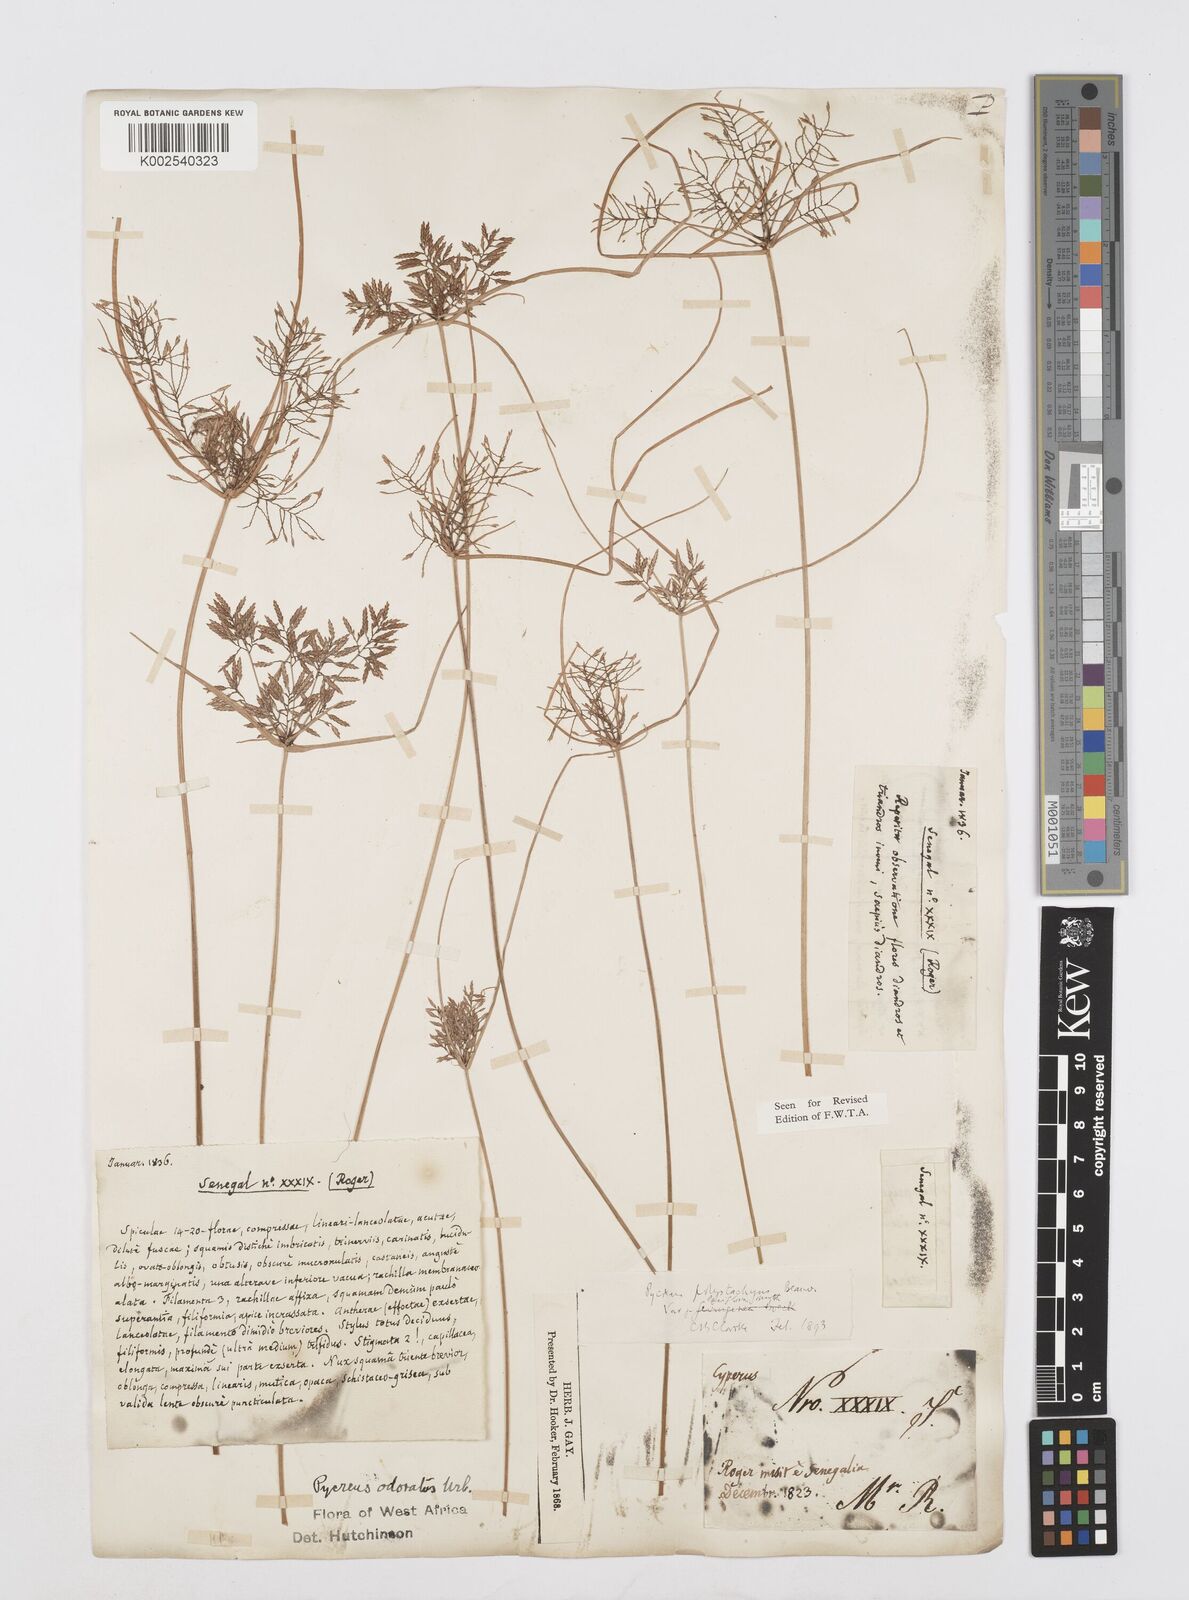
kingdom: Plantae
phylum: Tracheophyta
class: Liliopsida
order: Poales
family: Cyperaceae
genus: Cyperus
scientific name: Cyperus polystachyos
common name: Bunchy flat sedge
